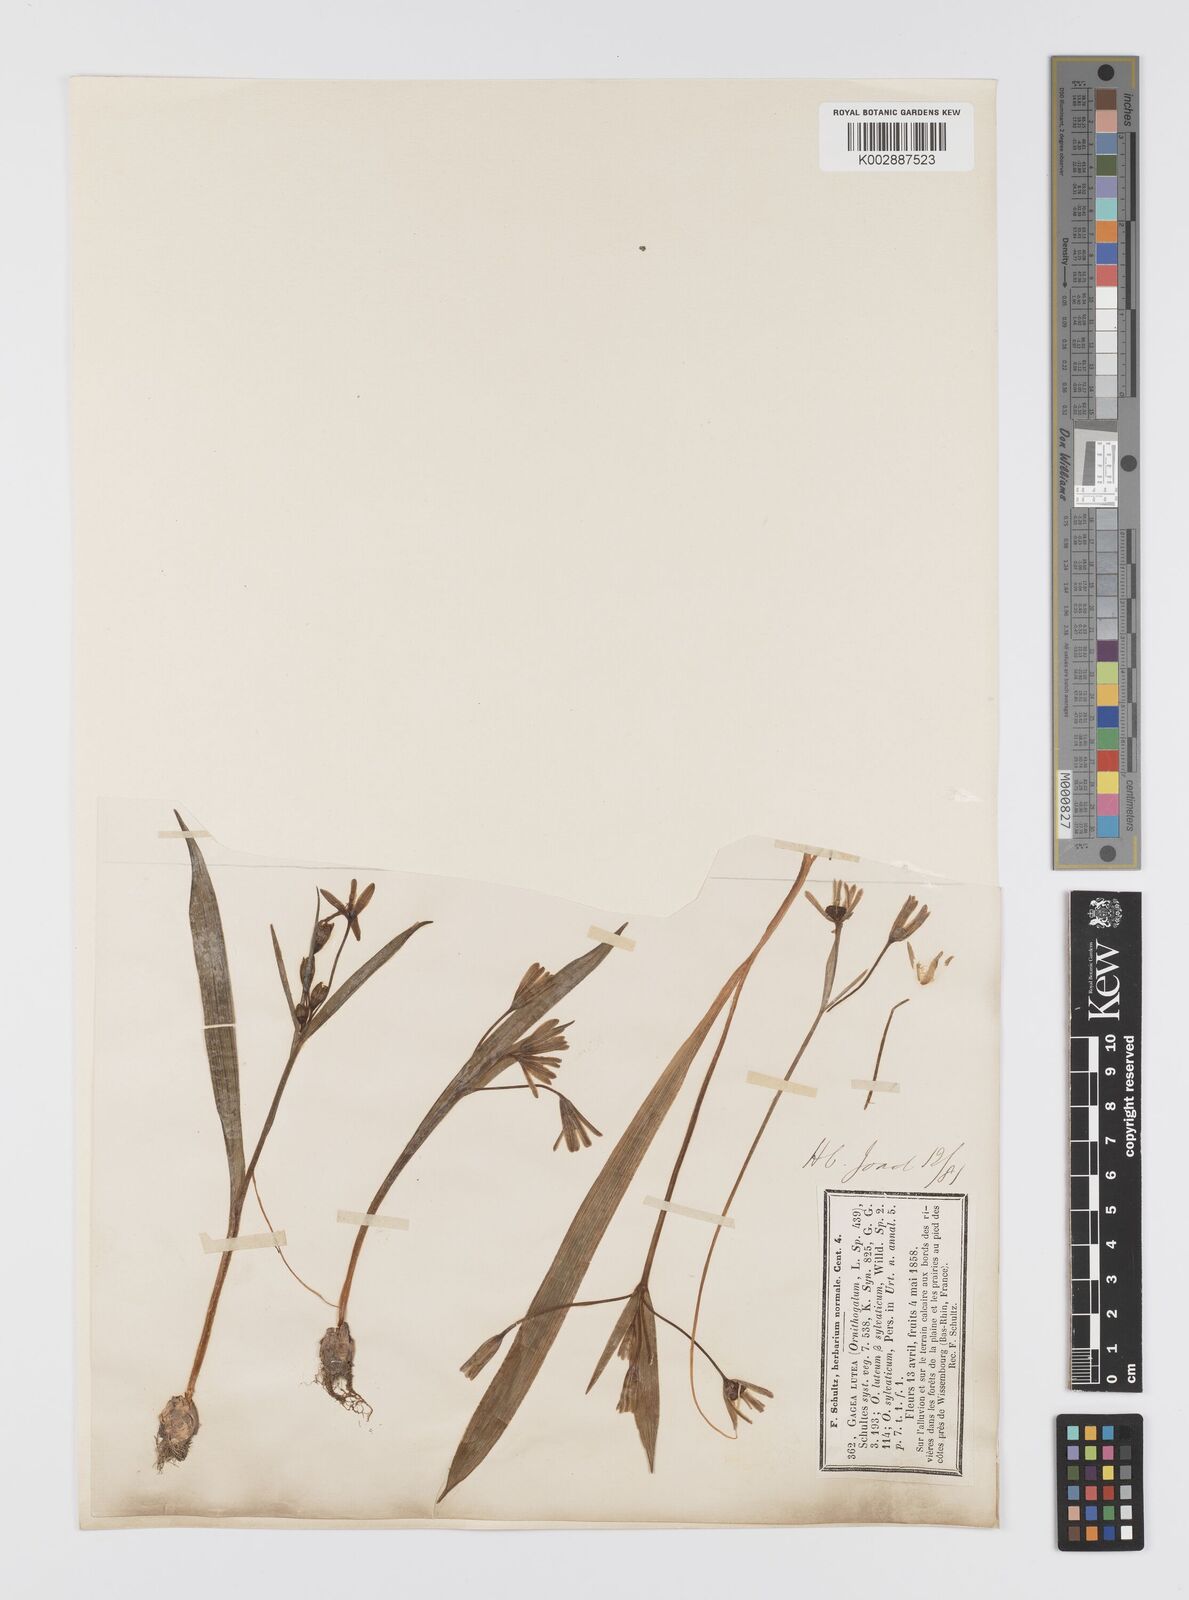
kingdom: Plantae
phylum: Tracheophyta
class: Liliopsida
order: Liliales
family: Liliaceae
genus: Gagea
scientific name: Gagea lutea
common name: Yellow star-of-bethlehem
